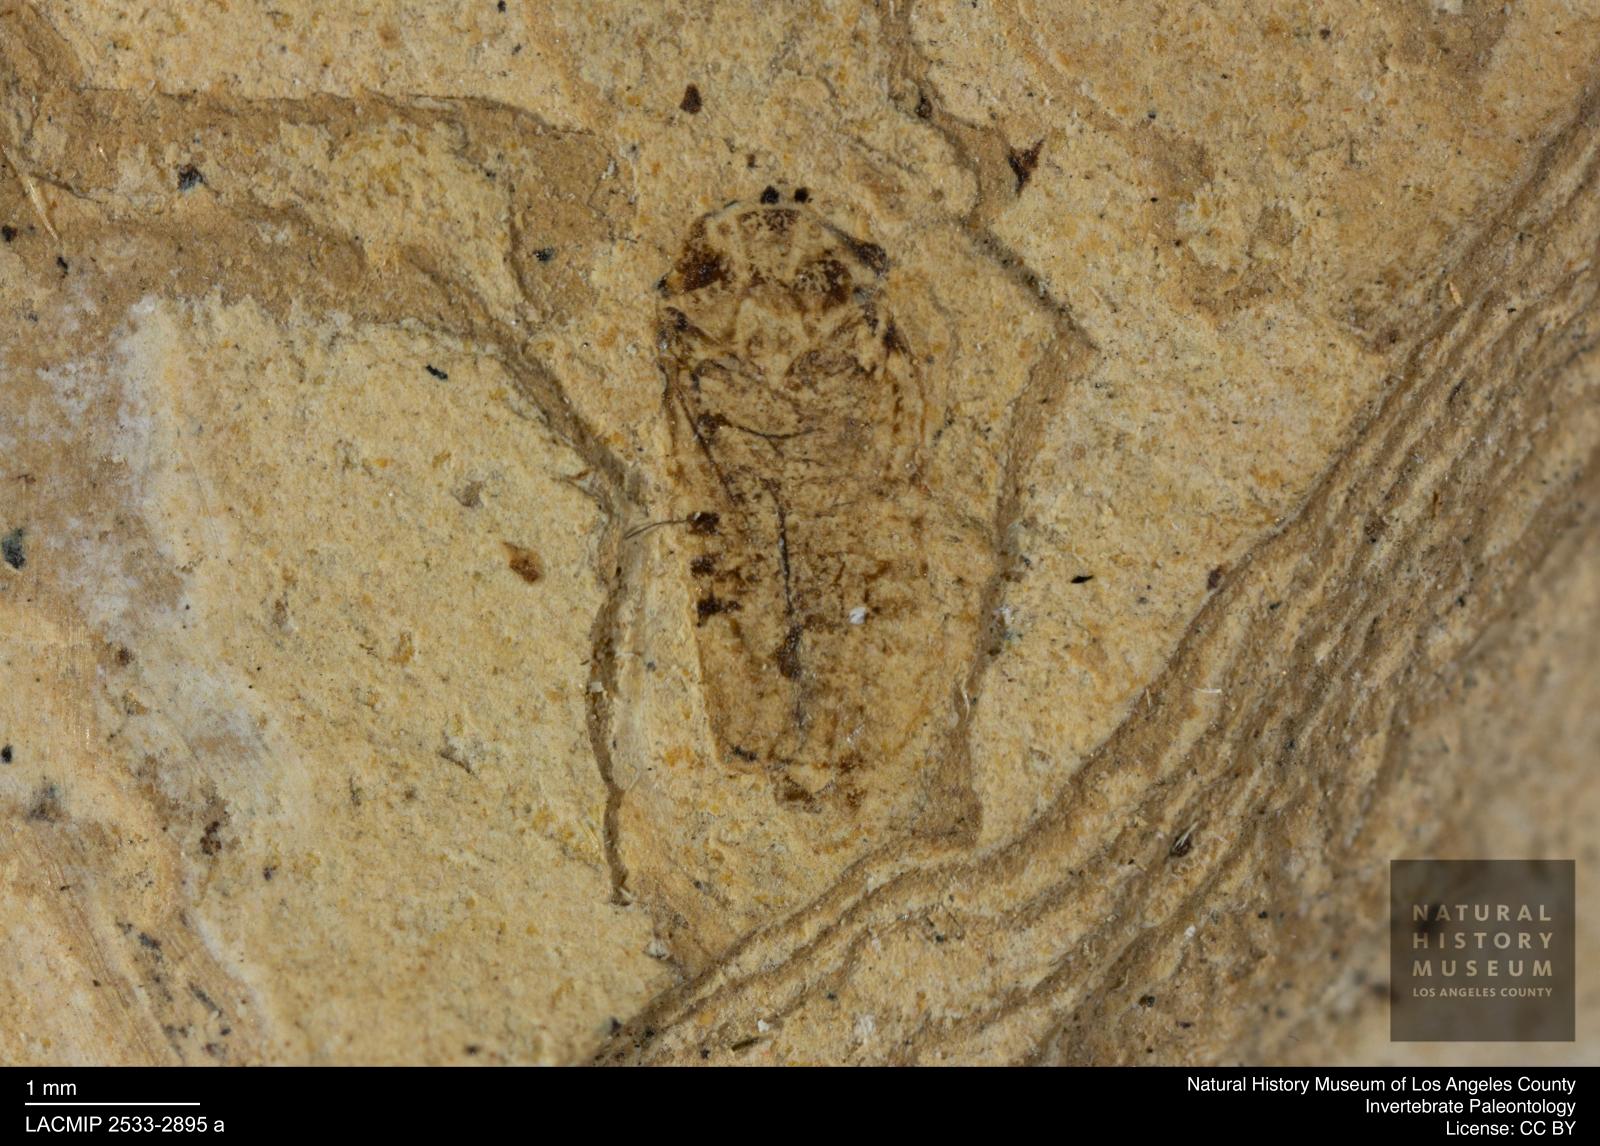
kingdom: Animalia
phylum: Arthropoda
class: Insecta
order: Hemiptera
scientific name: Hemiptera
